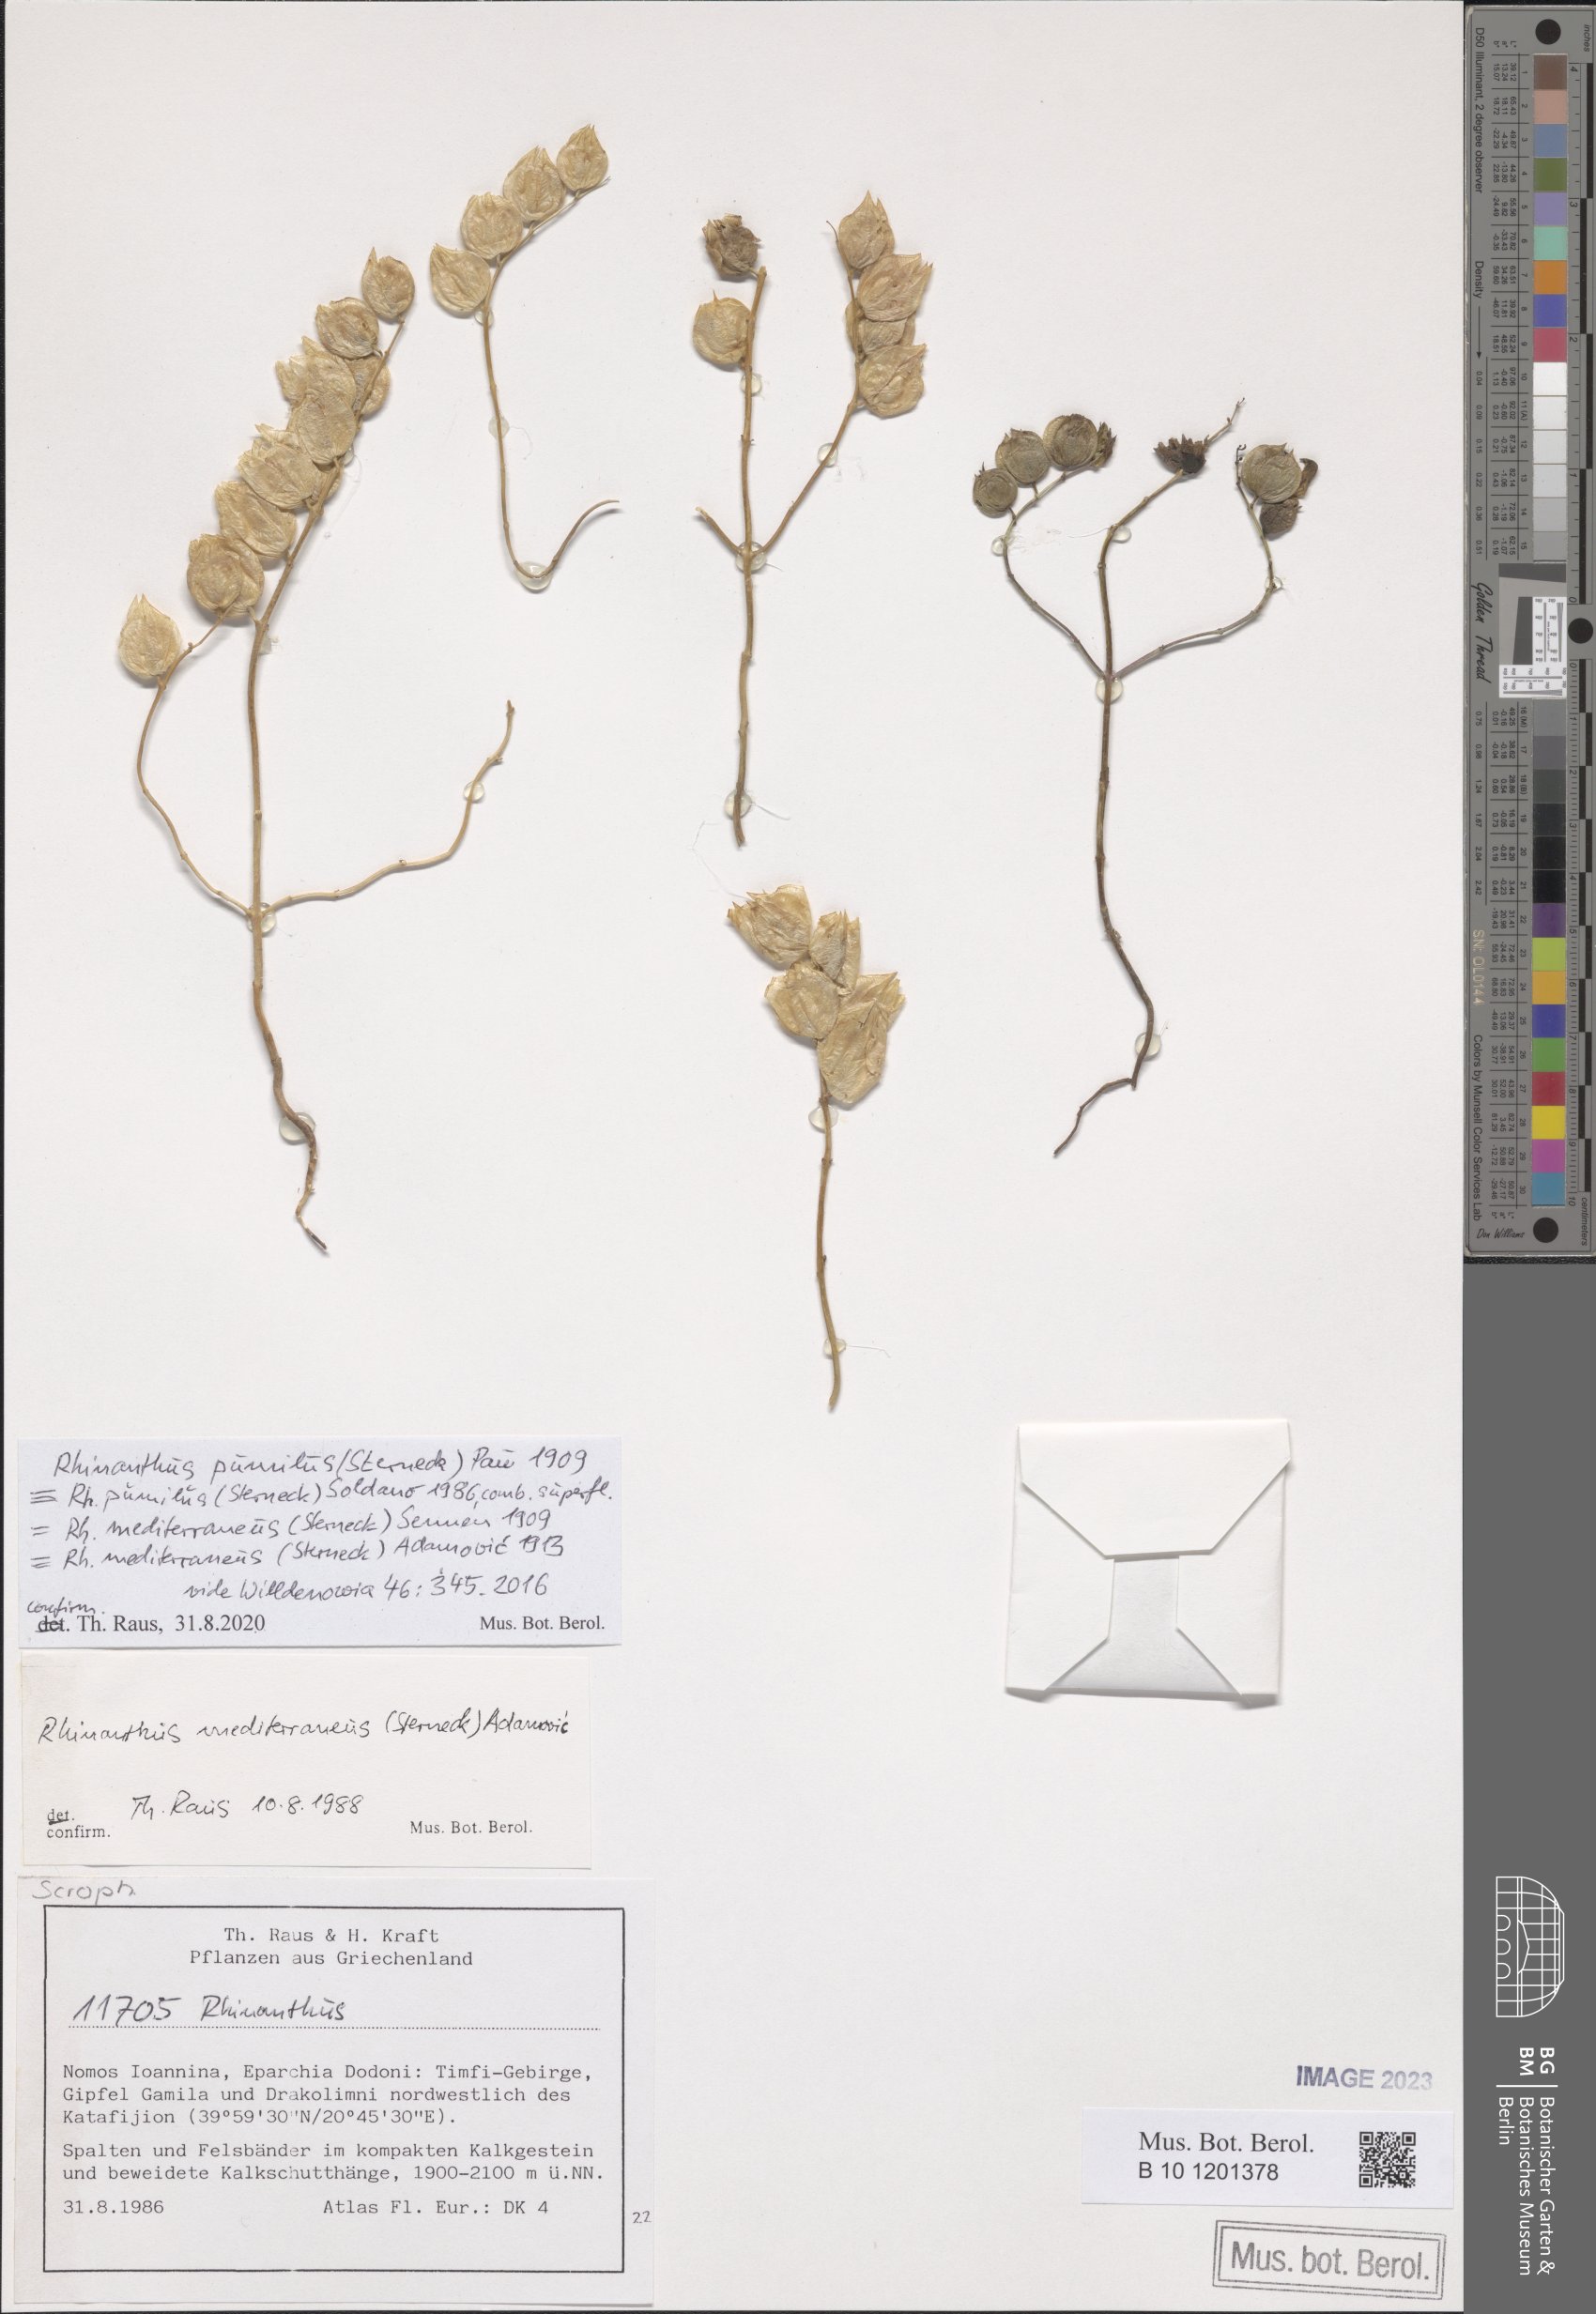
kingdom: Plantae
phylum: Tracheophyta
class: Magnoliopsida
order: Lamiales
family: Orobanchaceae
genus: Rhinanthus
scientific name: Rhinanthus pumilus
